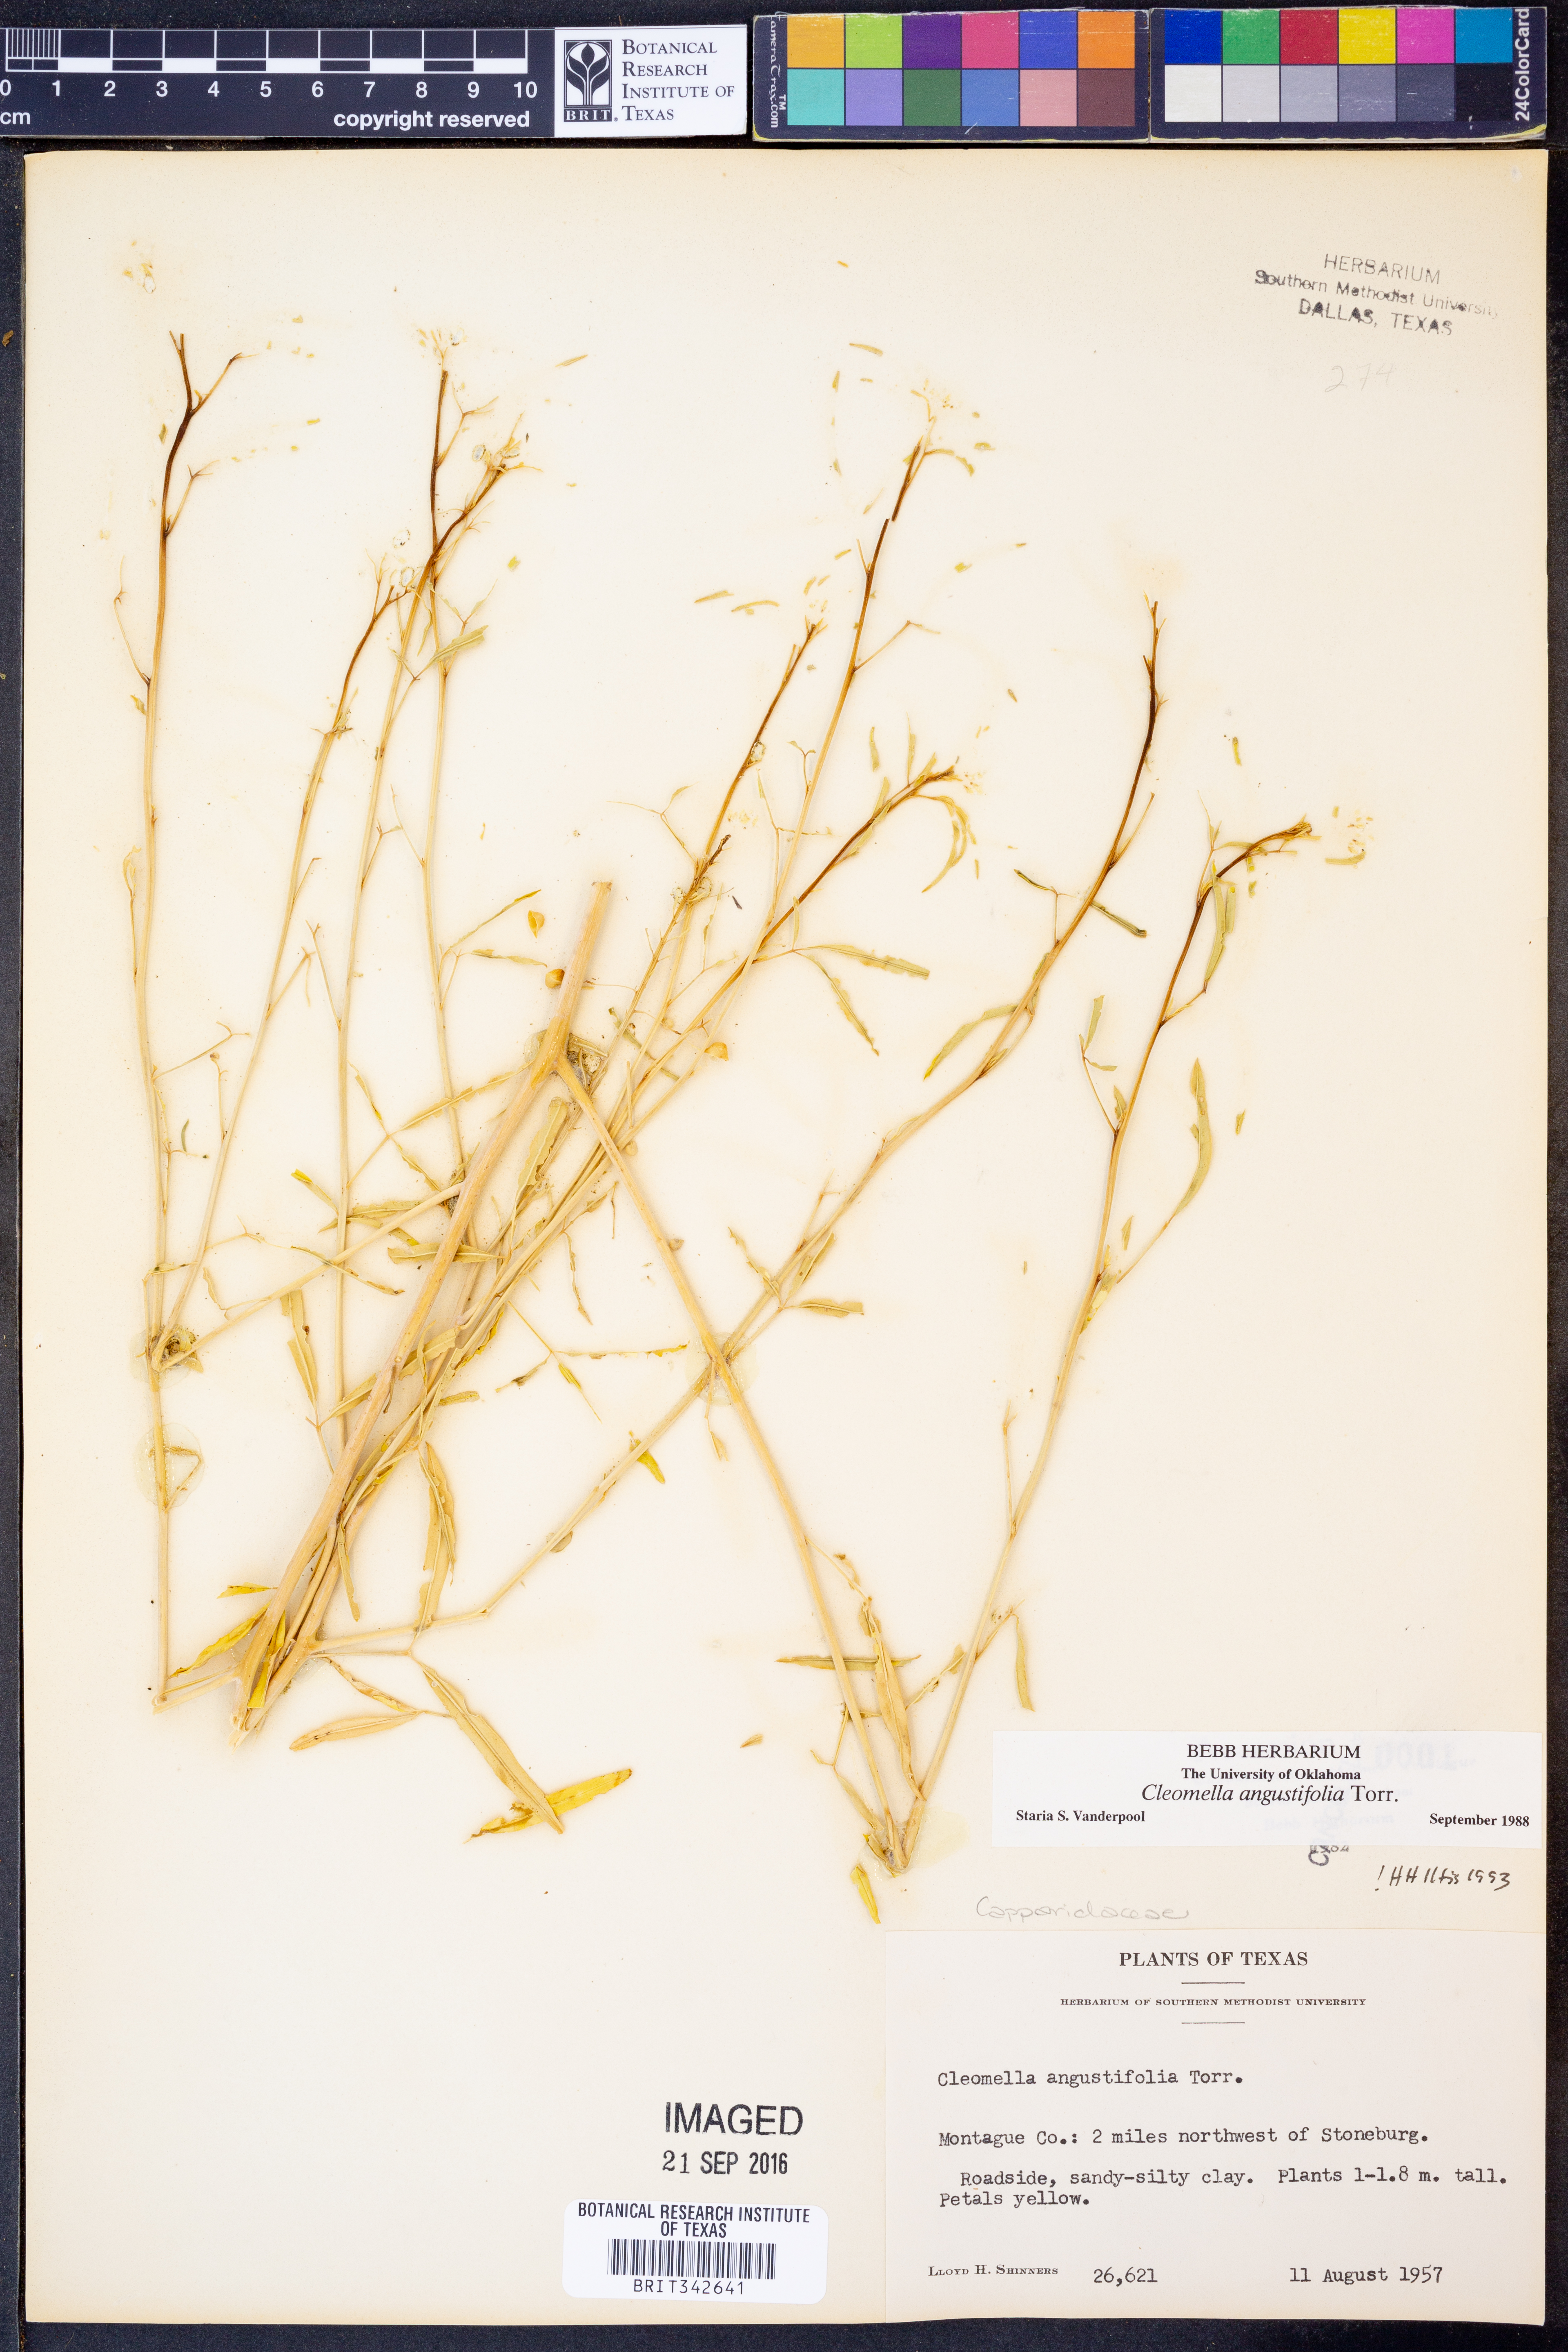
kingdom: Plantae
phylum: Tracheophyta
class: Magnoliopsida
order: Brassicales
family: Cleomaceae
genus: Cleomella
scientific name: Cleomella angustifolia
